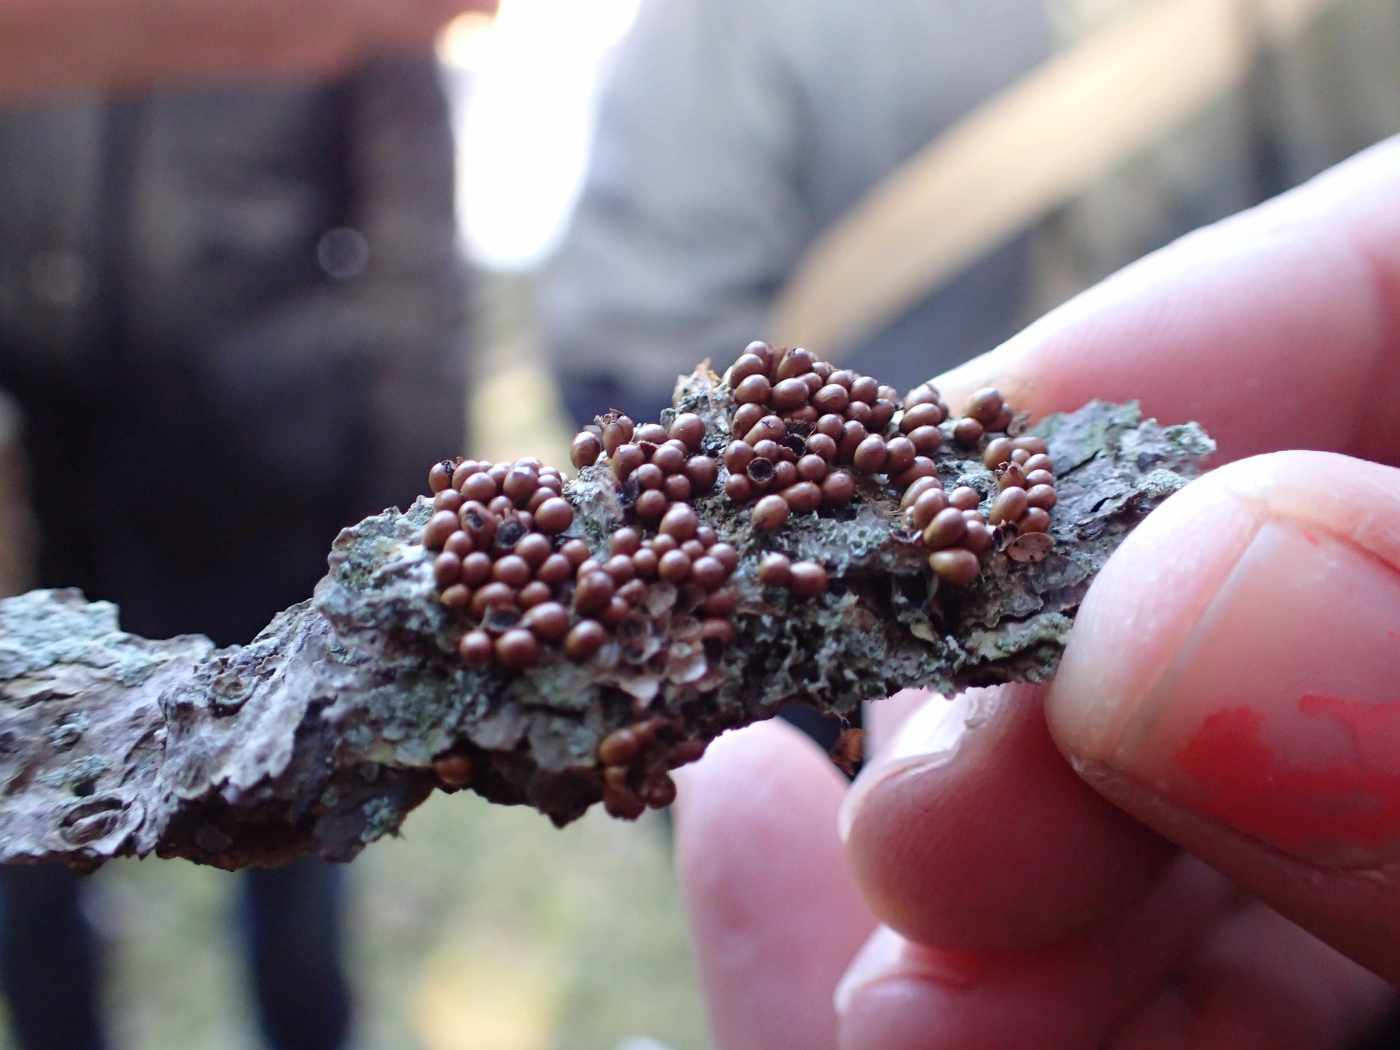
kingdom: Protozoa
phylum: Mycetozoa
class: Myxomycetes
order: Physarales
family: Physaraceae
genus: Leocarpus
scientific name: Leocarpus fragilis
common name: poleret glatfrø
